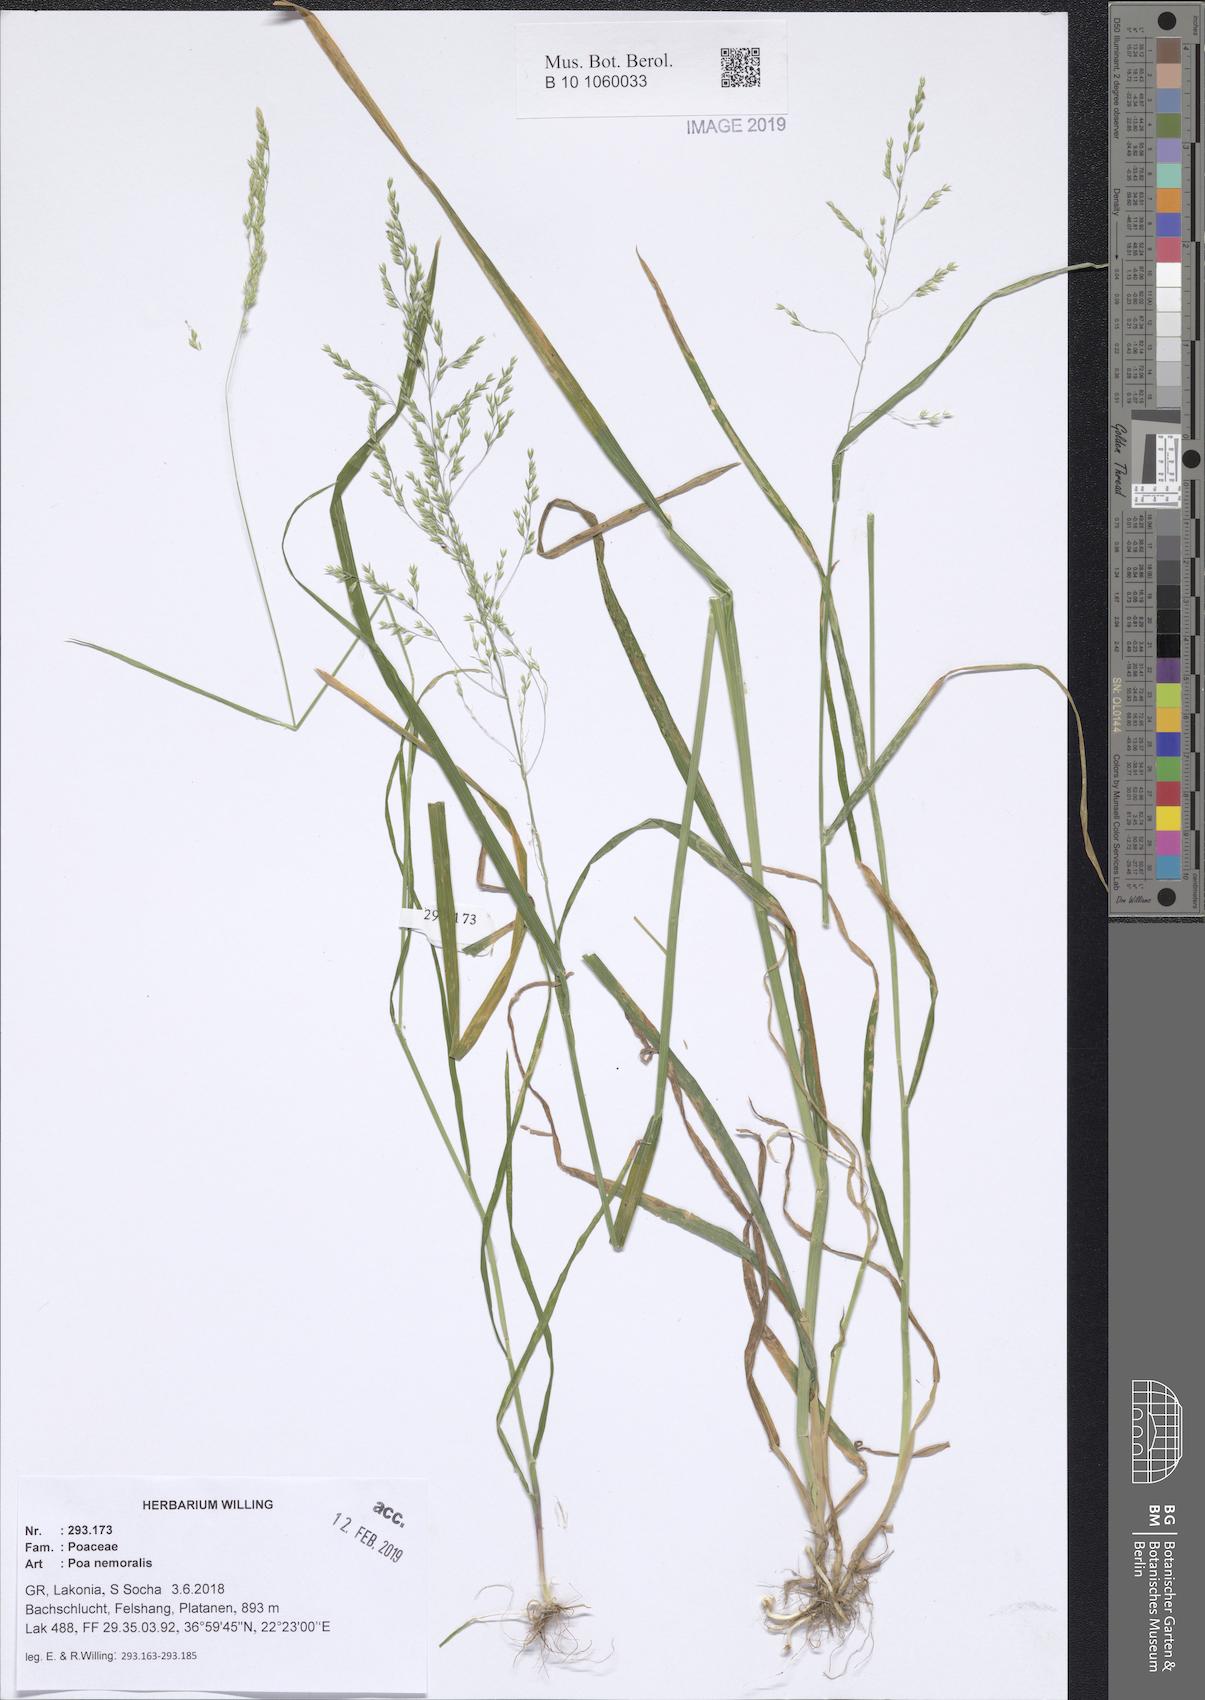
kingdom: Plantae
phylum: Tracheophyta
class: Liliopsida
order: Poales
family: Poaceae
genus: Poa
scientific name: Poa nemoralis
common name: Wood bluegrass
